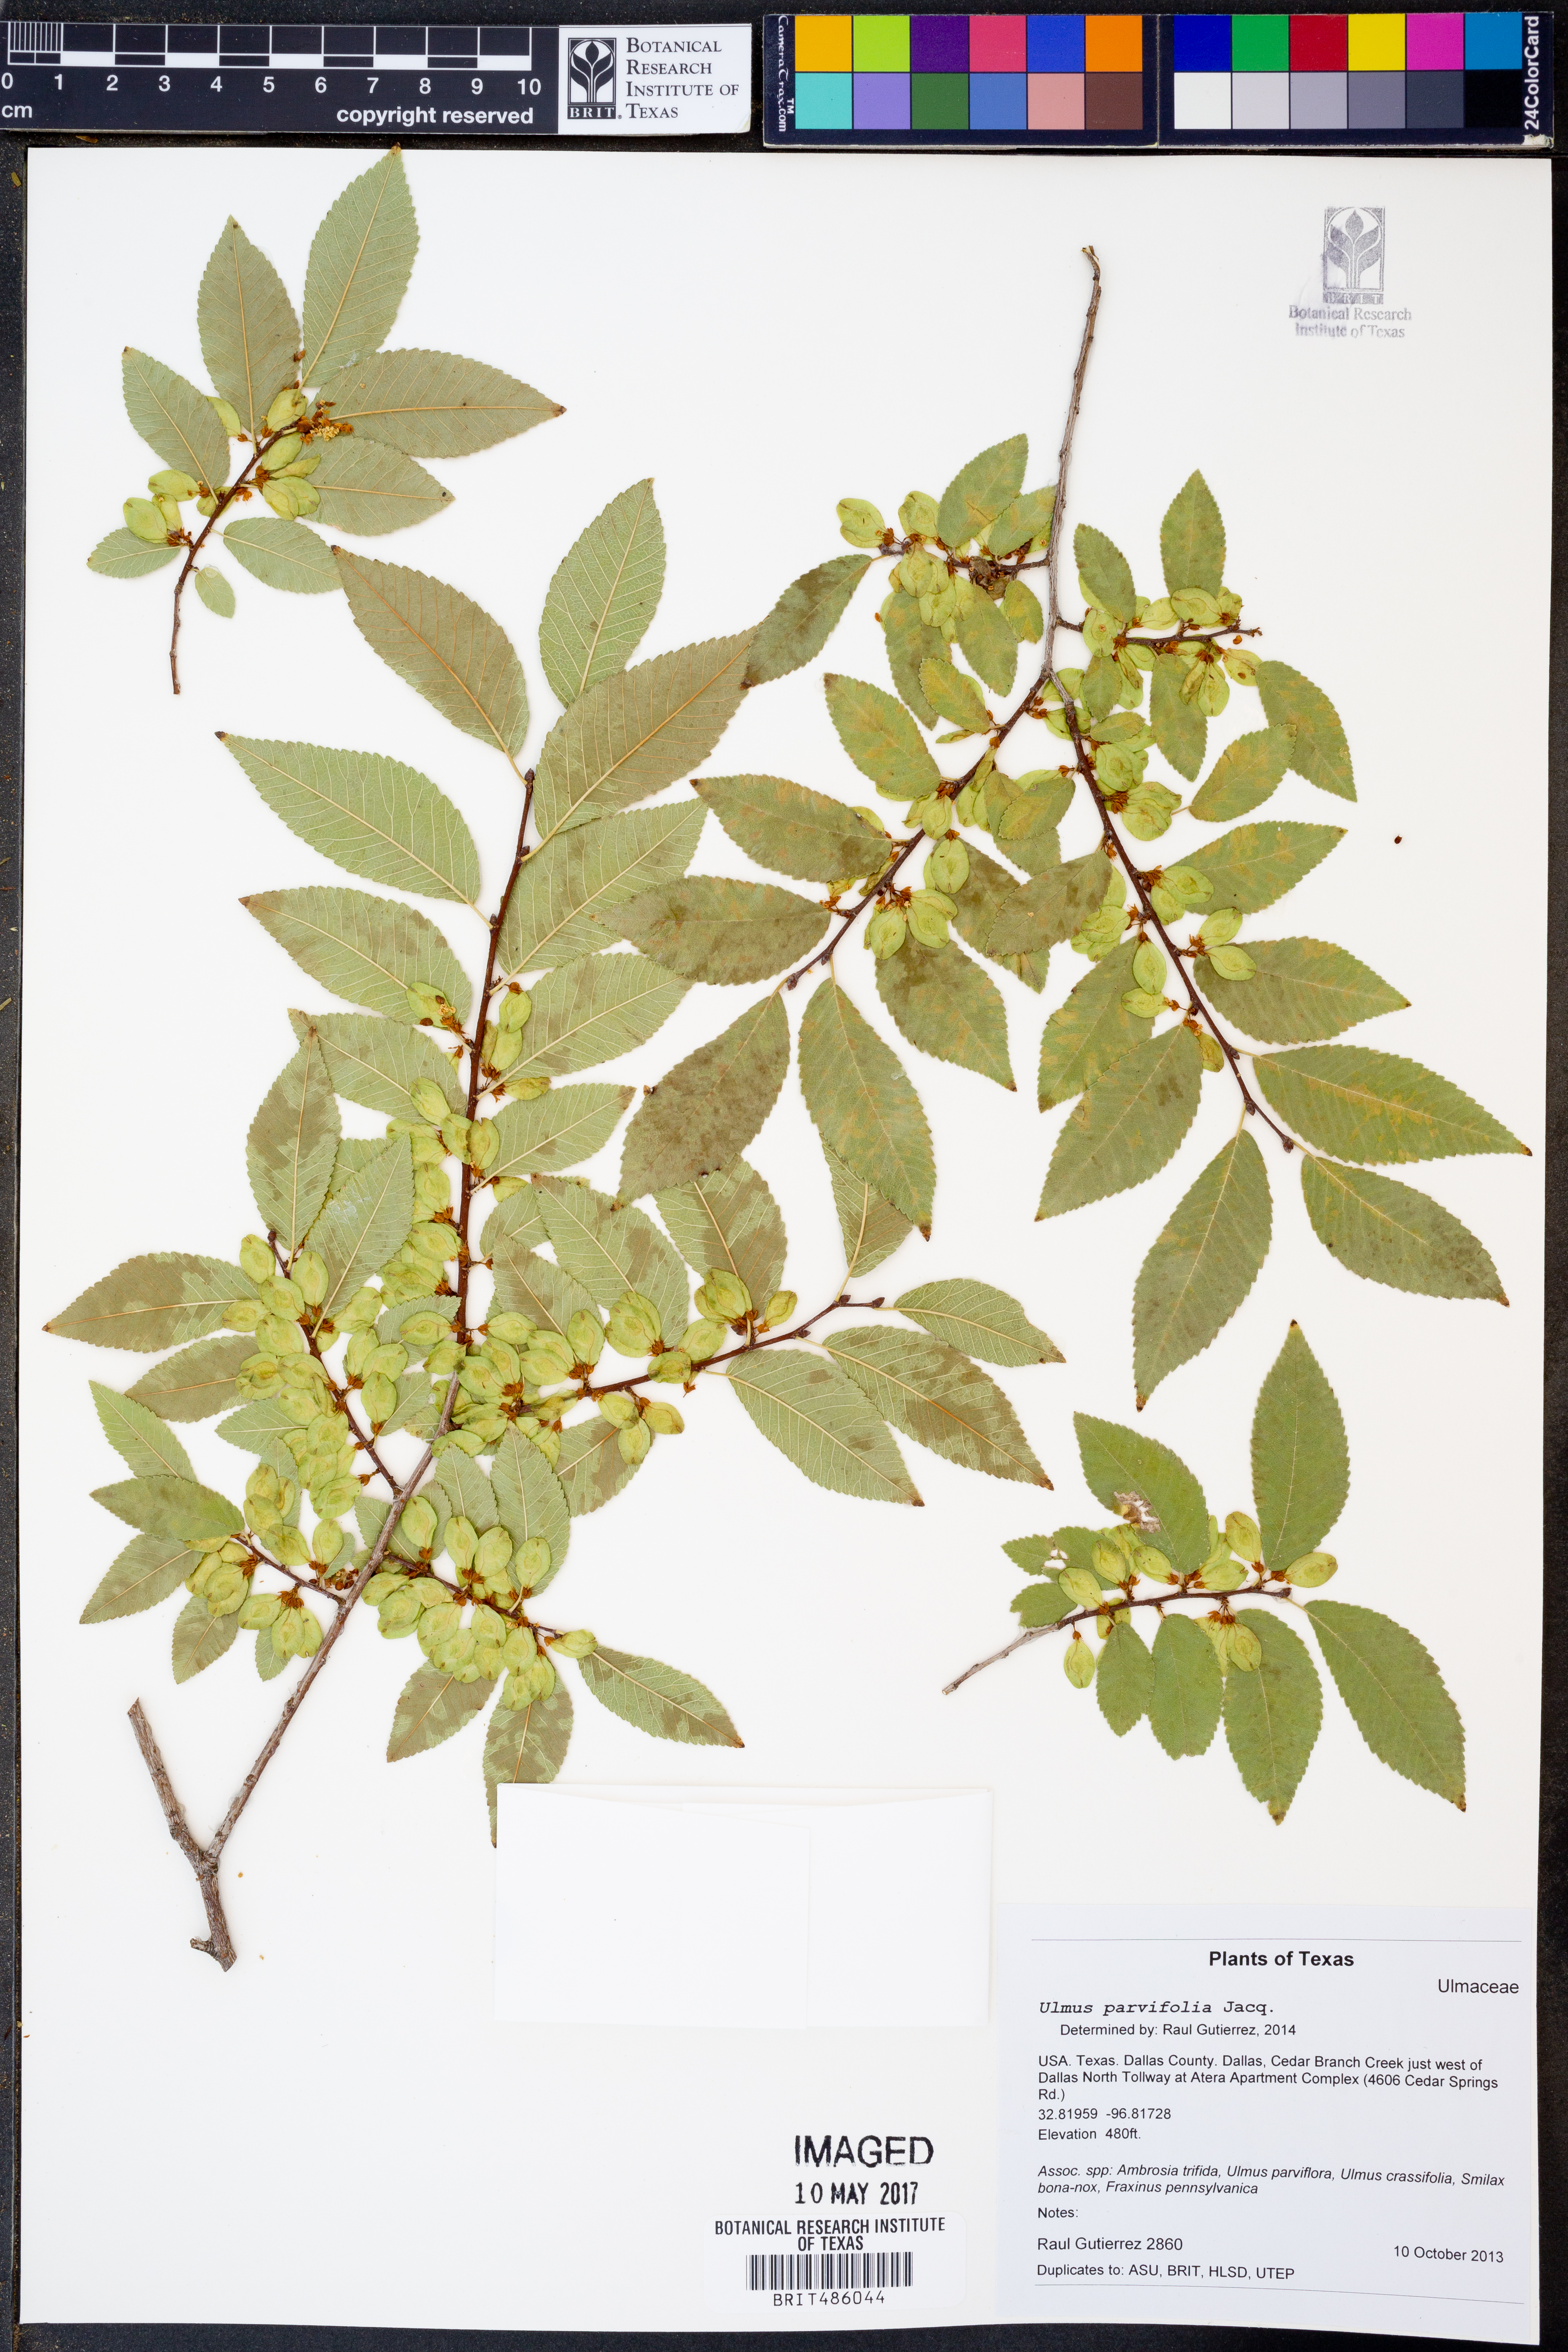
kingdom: Plantae
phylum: Tracheophyta
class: Magnoliopsida
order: Rosales
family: Ulmaceae
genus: Ulmus
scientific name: Ulmus parvifolia
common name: Chinese elm
